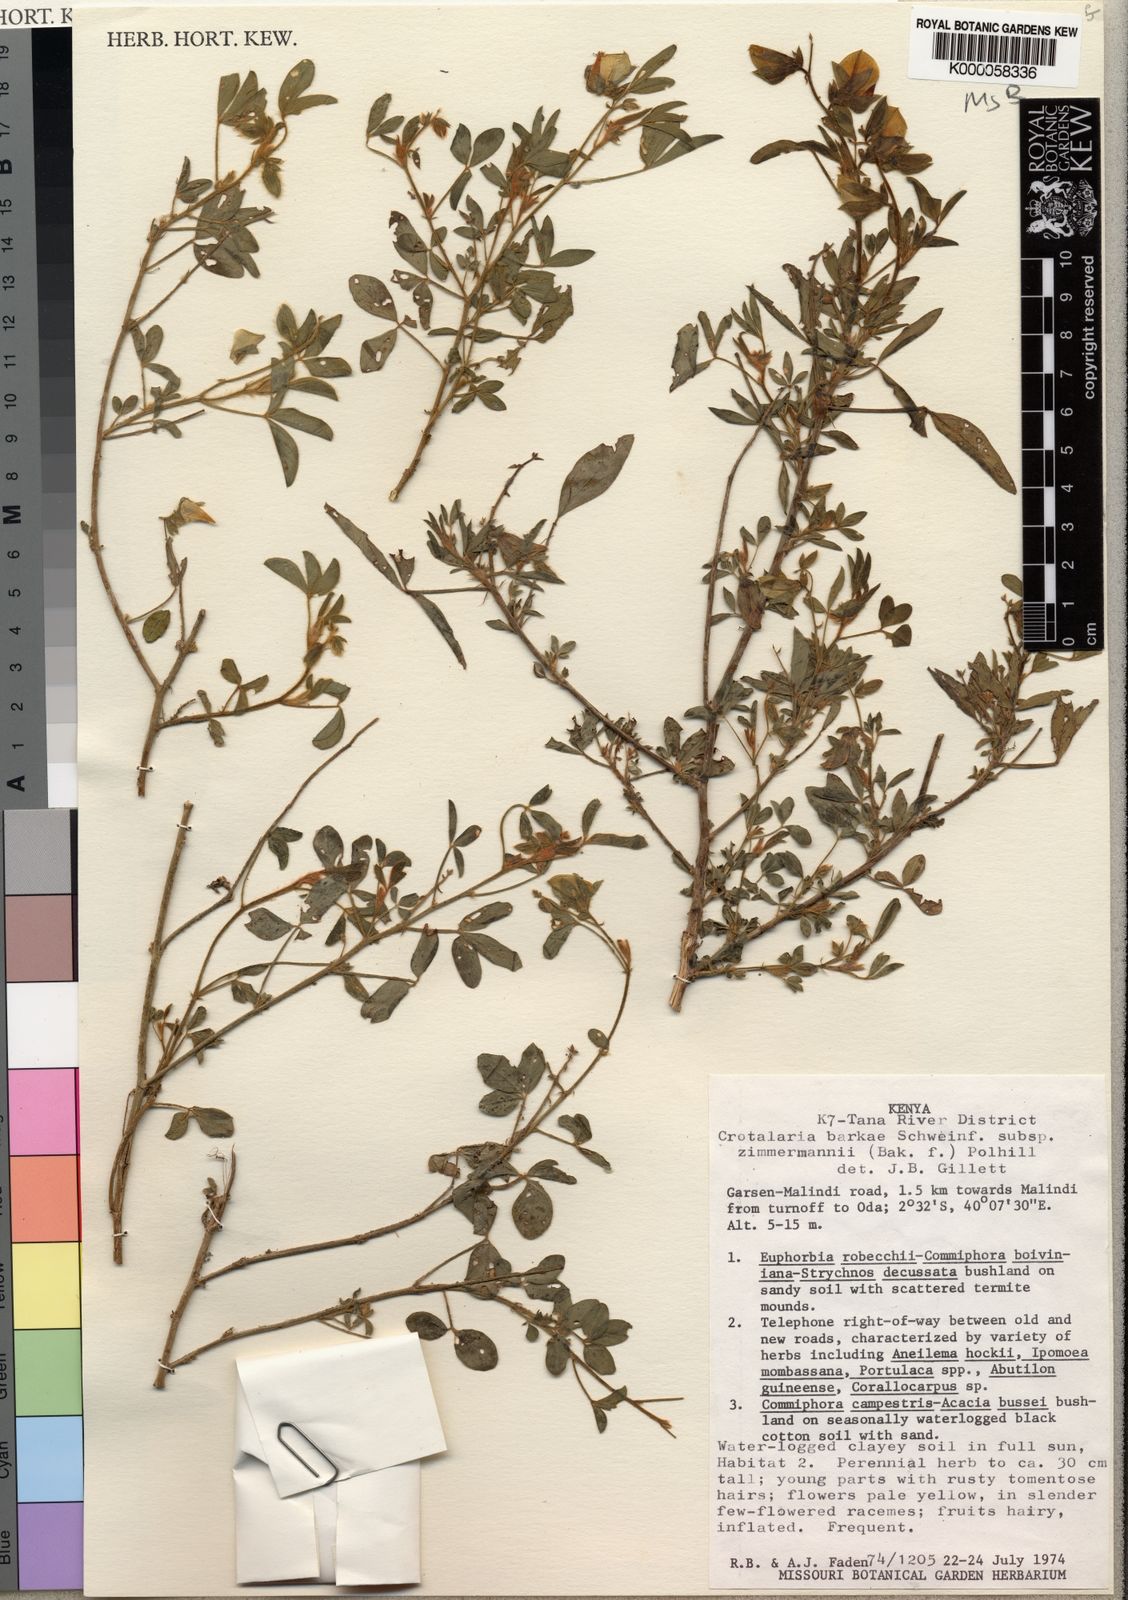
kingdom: Plantae
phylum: Tracheophyta
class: Magnoliopsida
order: Fabales
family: Fabaceae
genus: Crotalaria
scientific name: Crotalaria barkae
